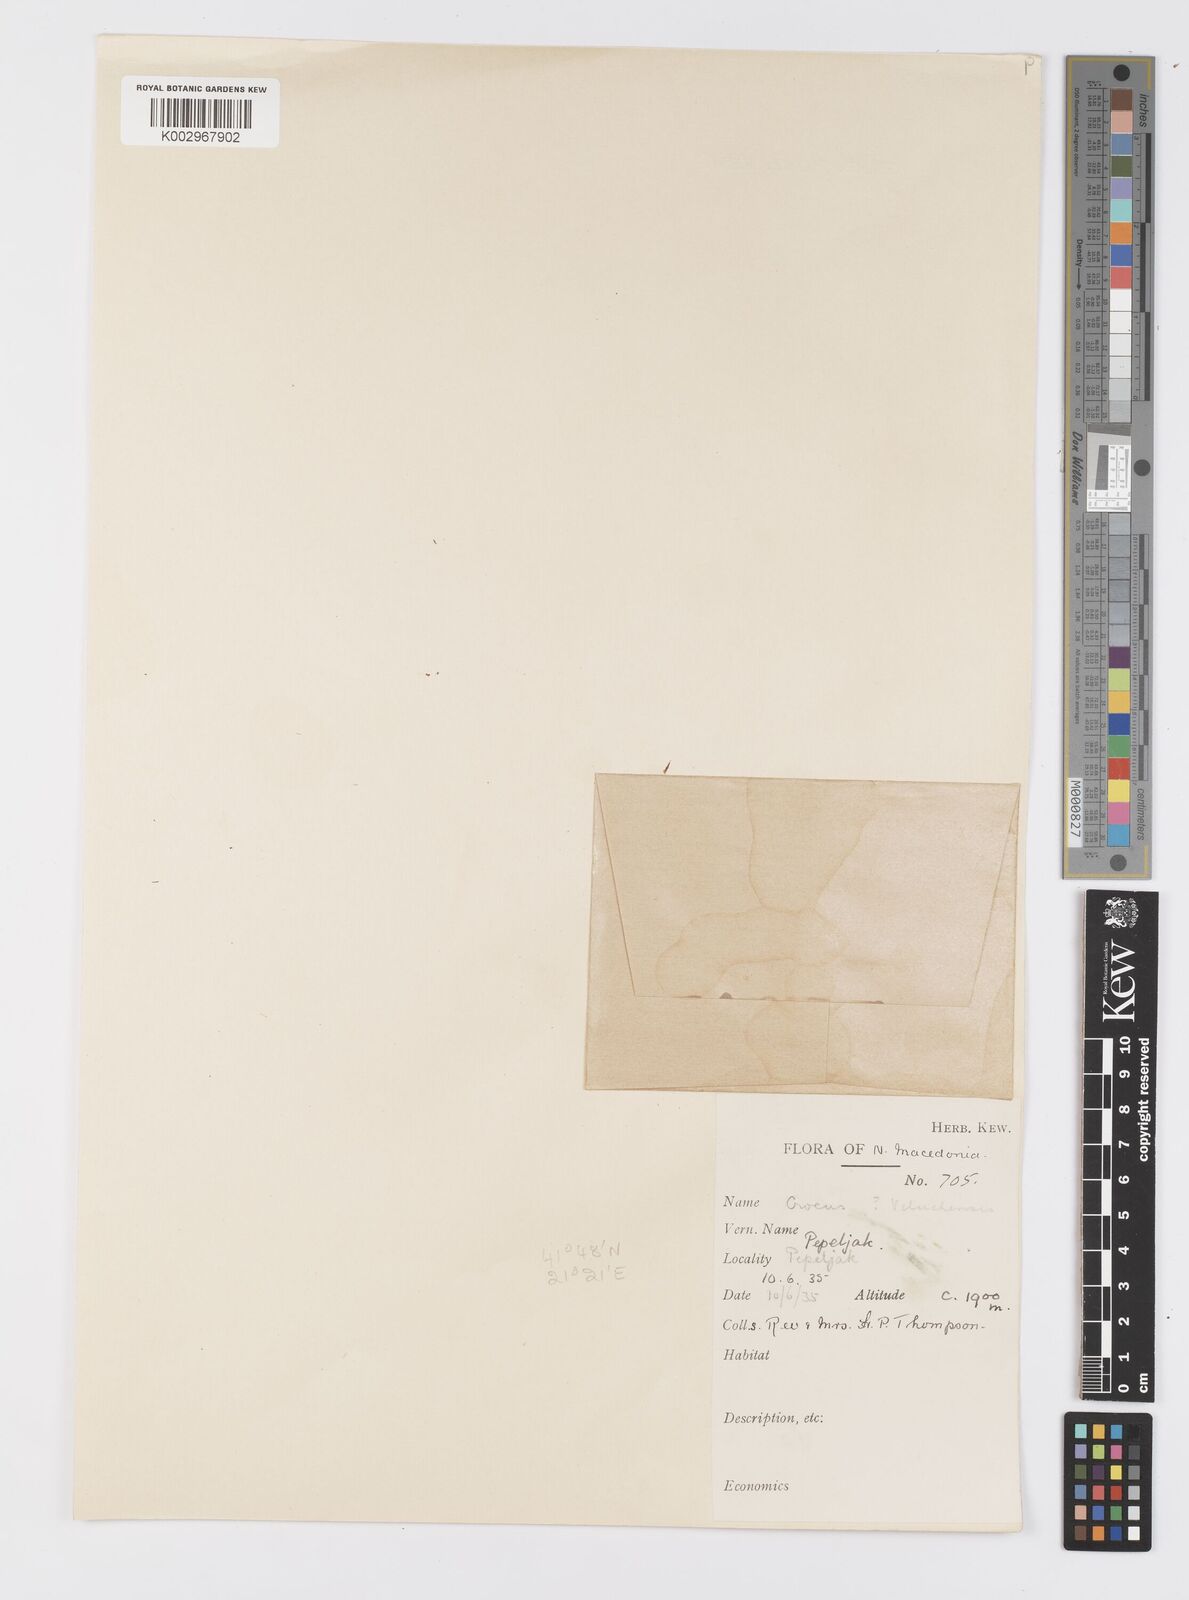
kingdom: Plantae
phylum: Tracheophyta
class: Liliopsida
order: Asparagales
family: Iridaceae
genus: Crocus
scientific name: Crocus pelistericus
